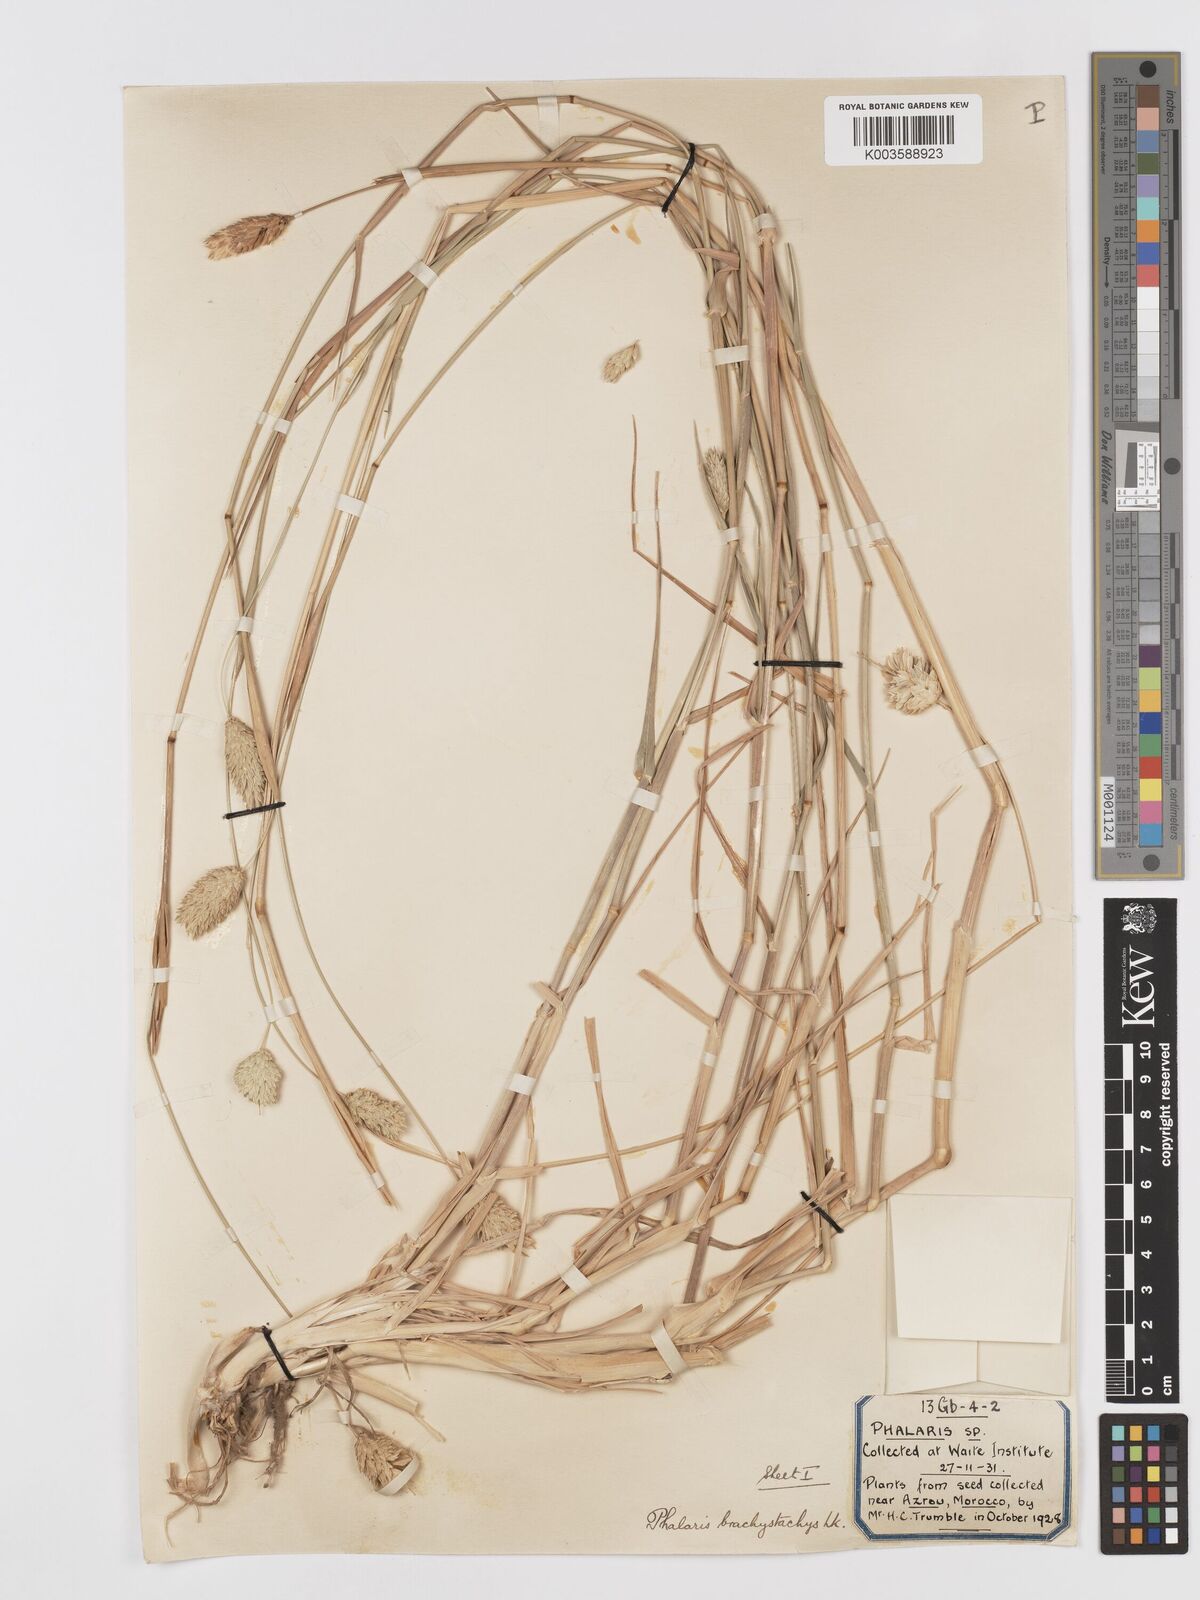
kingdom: Plantae
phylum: Tracheophyta
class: Liliopsida
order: Poales
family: Poaceae
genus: Phalaris
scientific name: Phalaris brachystachys
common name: Confused canary-grass
